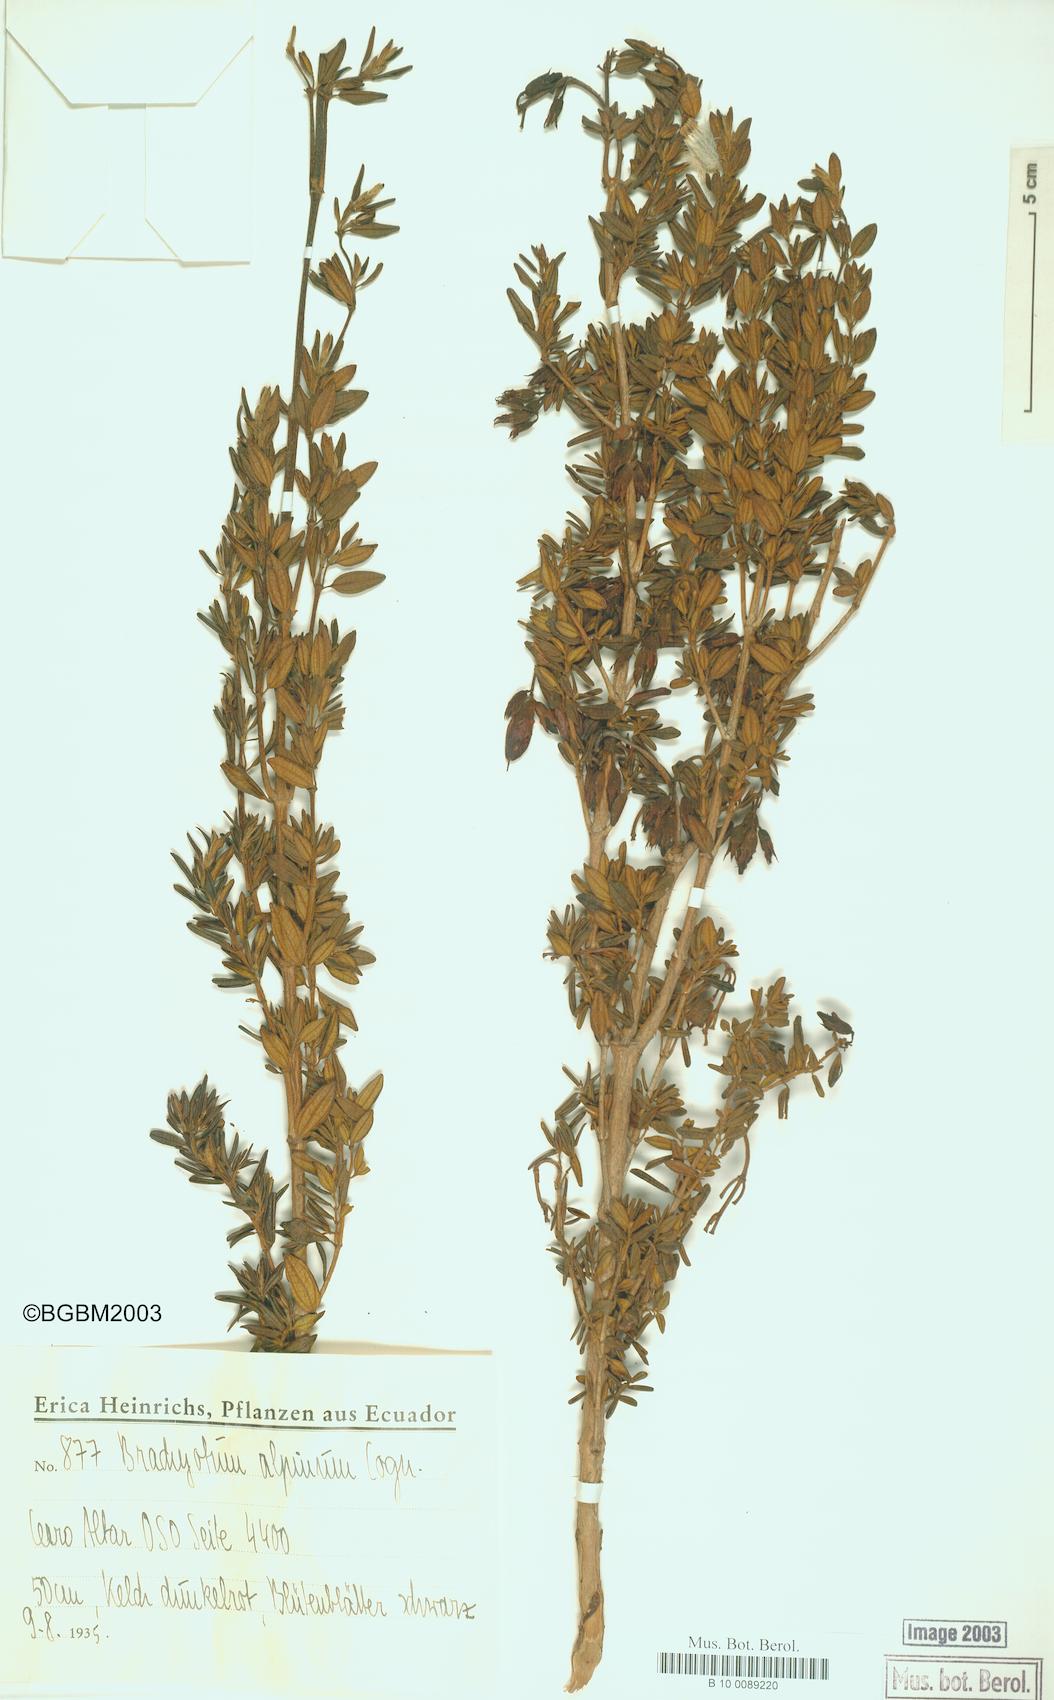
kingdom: Plantae
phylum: Tracheophyta
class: Magnoliopsida
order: Myrtales
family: Melastomataceae
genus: Brachyotum
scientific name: Brachyotum alpinum
